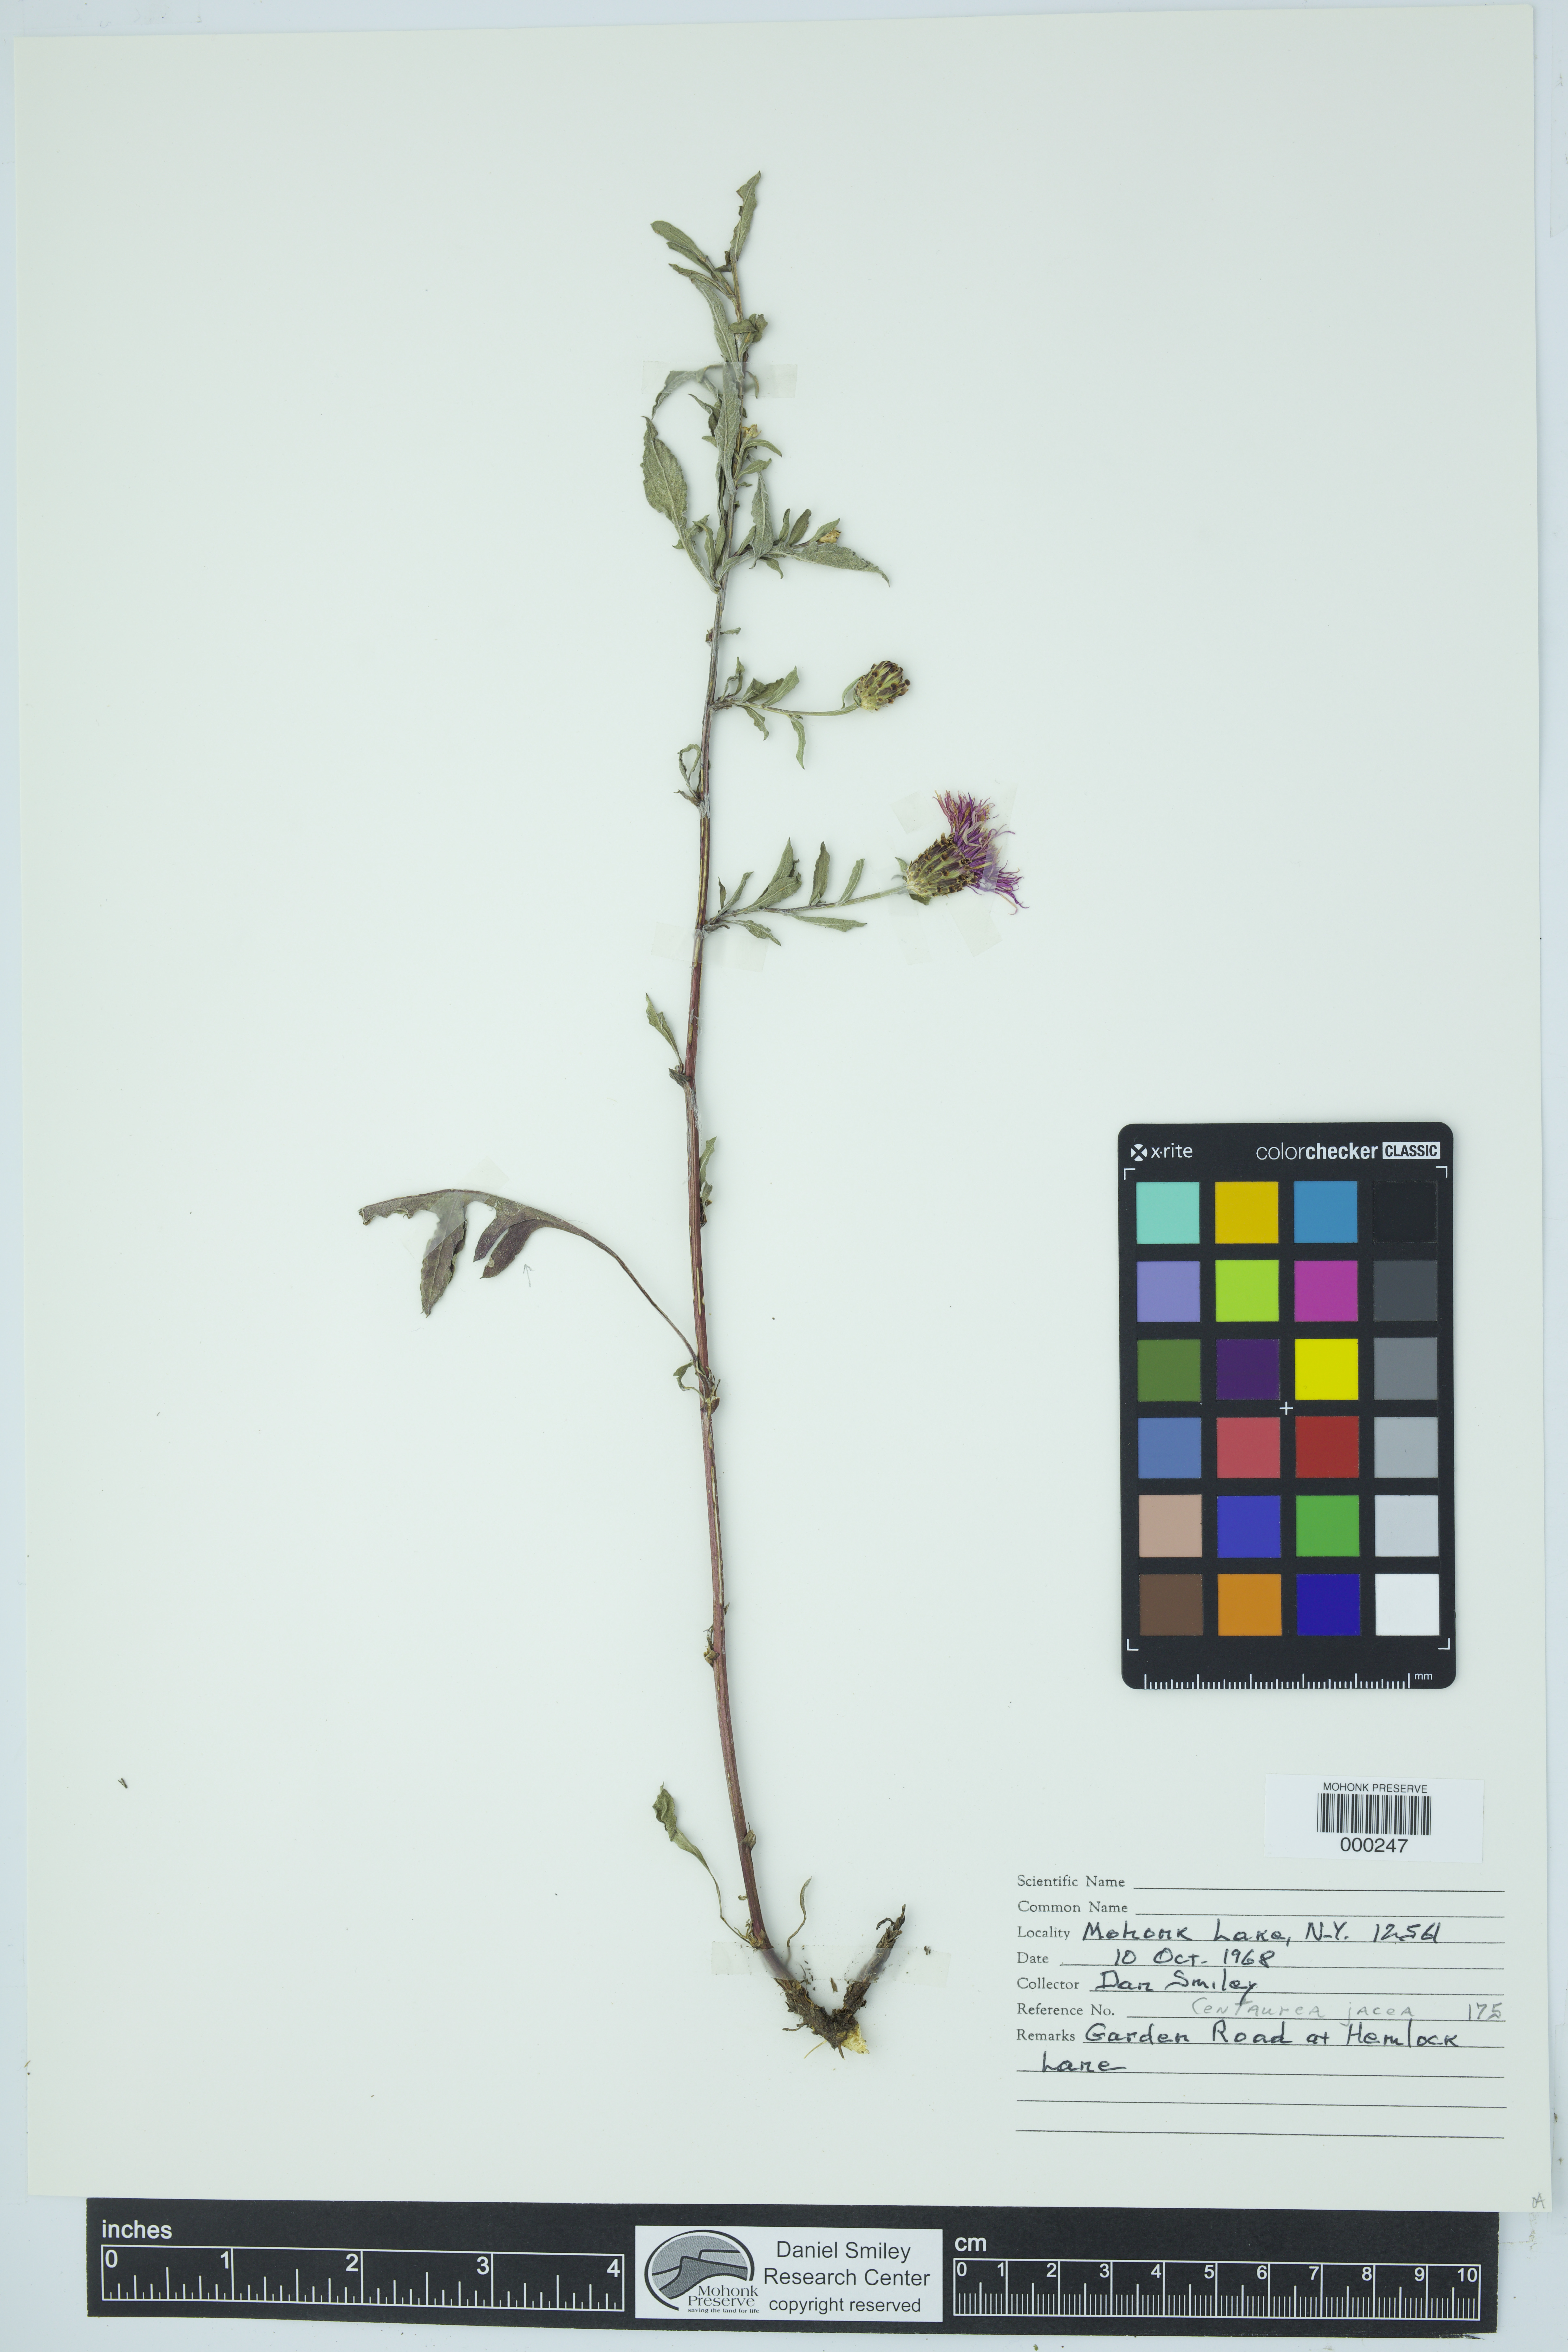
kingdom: Plantae
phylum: Tracheophyta
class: Magnoliopsida
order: Asterales
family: Asteraceae
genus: Centaurea
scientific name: Centaurea jacea
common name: Brown knapweed
